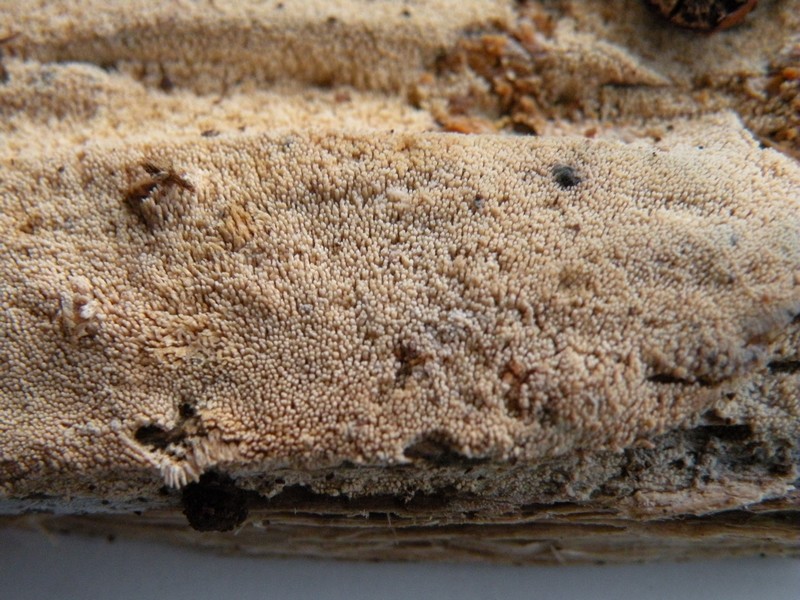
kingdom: Fungi
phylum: Basidiomycota
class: Agaricomycetes
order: Hymenochaetales
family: Hyphodontiaceae
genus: Hyphodontia
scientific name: Hyphodontia arguta
